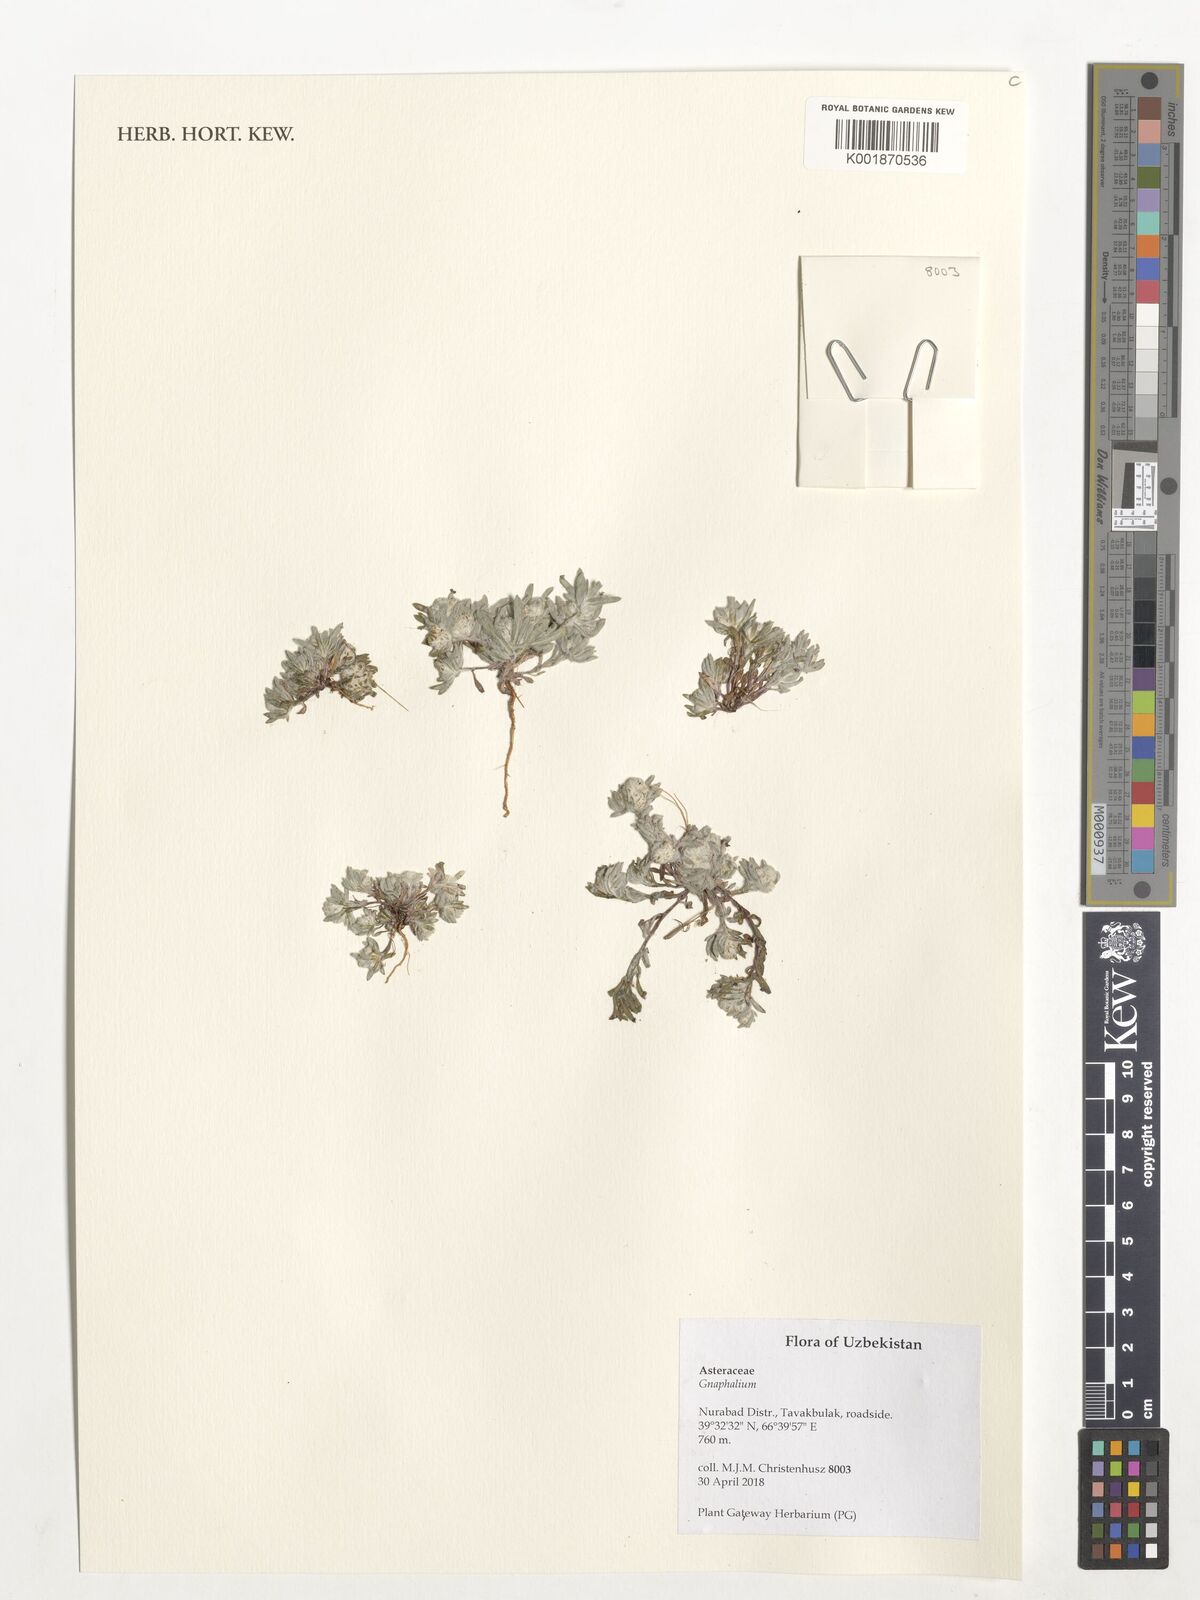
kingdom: Plantae
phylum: Tracheophyta
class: Magnoliopsida
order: Asterales
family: Asteraceae
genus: Gnaphalium
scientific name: Gnaphalium
